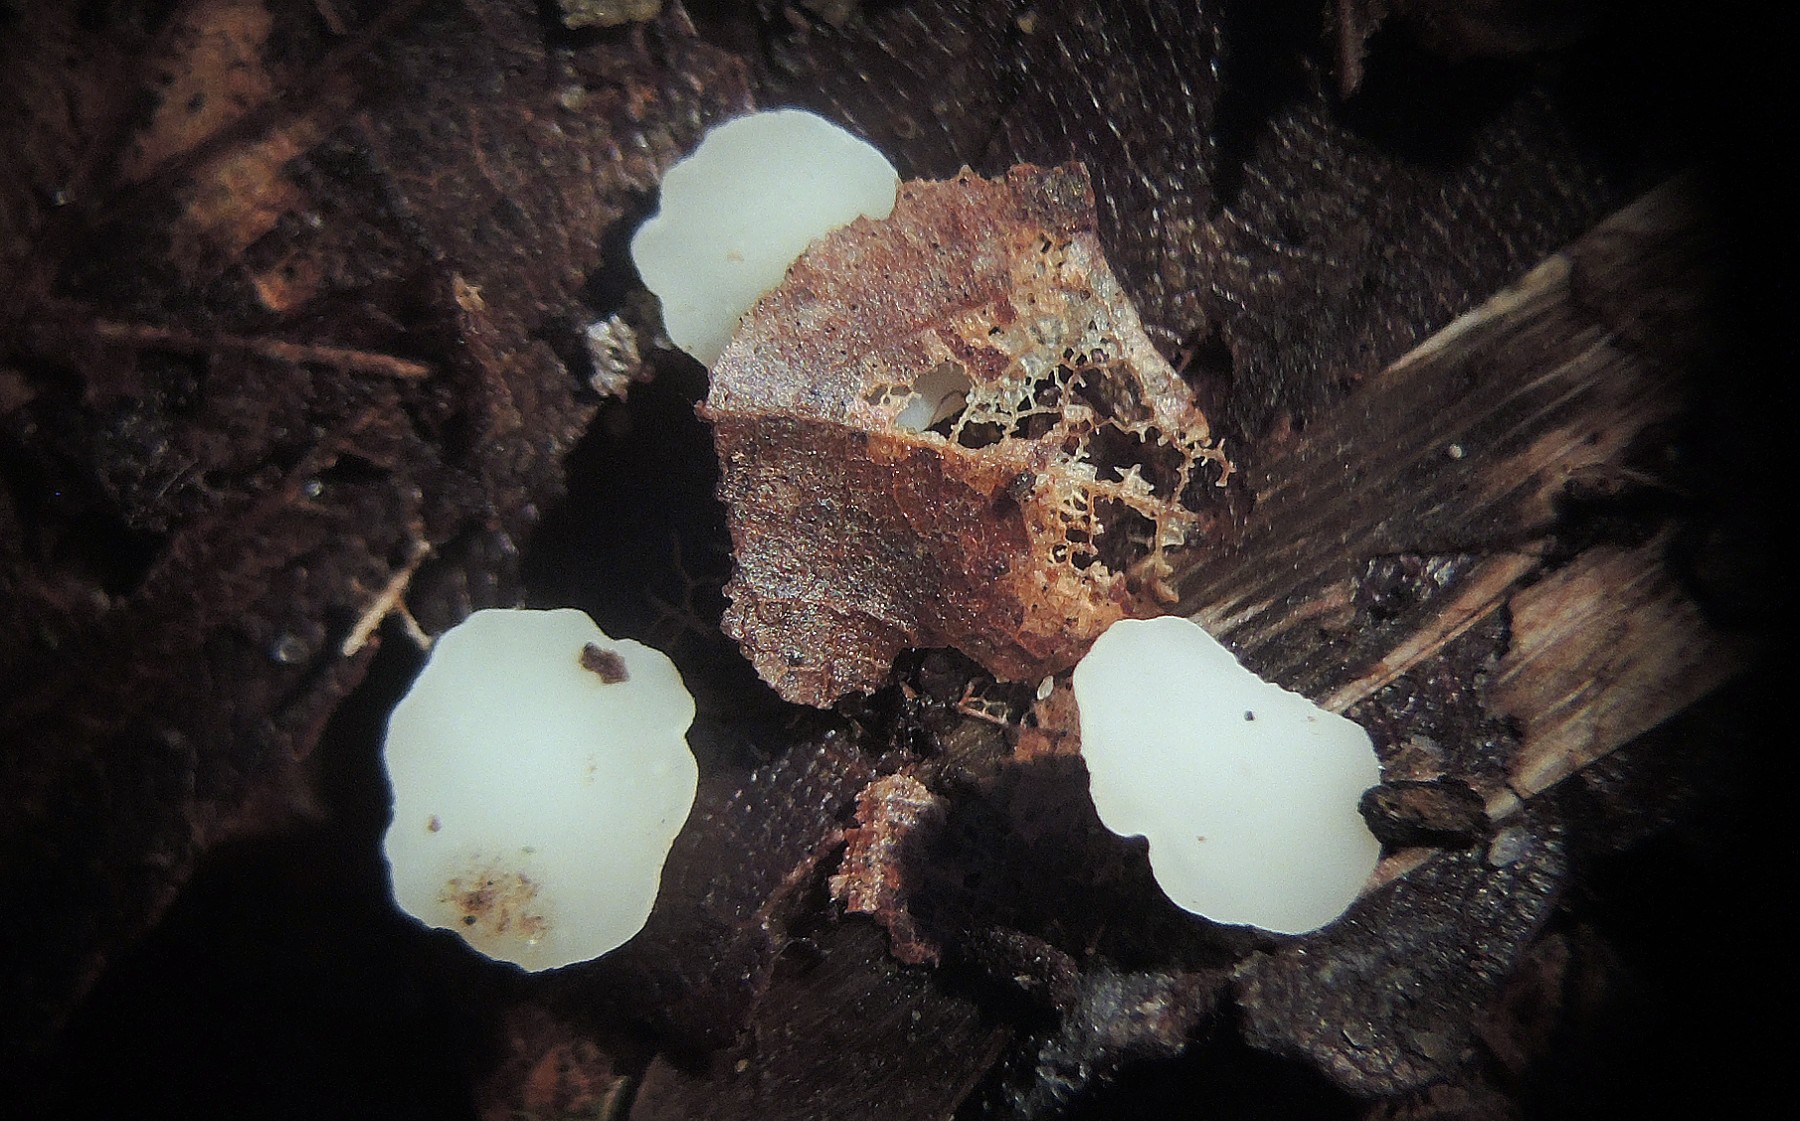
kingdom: Fungi
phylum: Ascomycota
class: Leotiomycetes
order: Helotiales
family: Helotiaceae
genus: Hymenoscyphus
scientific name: Hymenoscyphus geogenum
